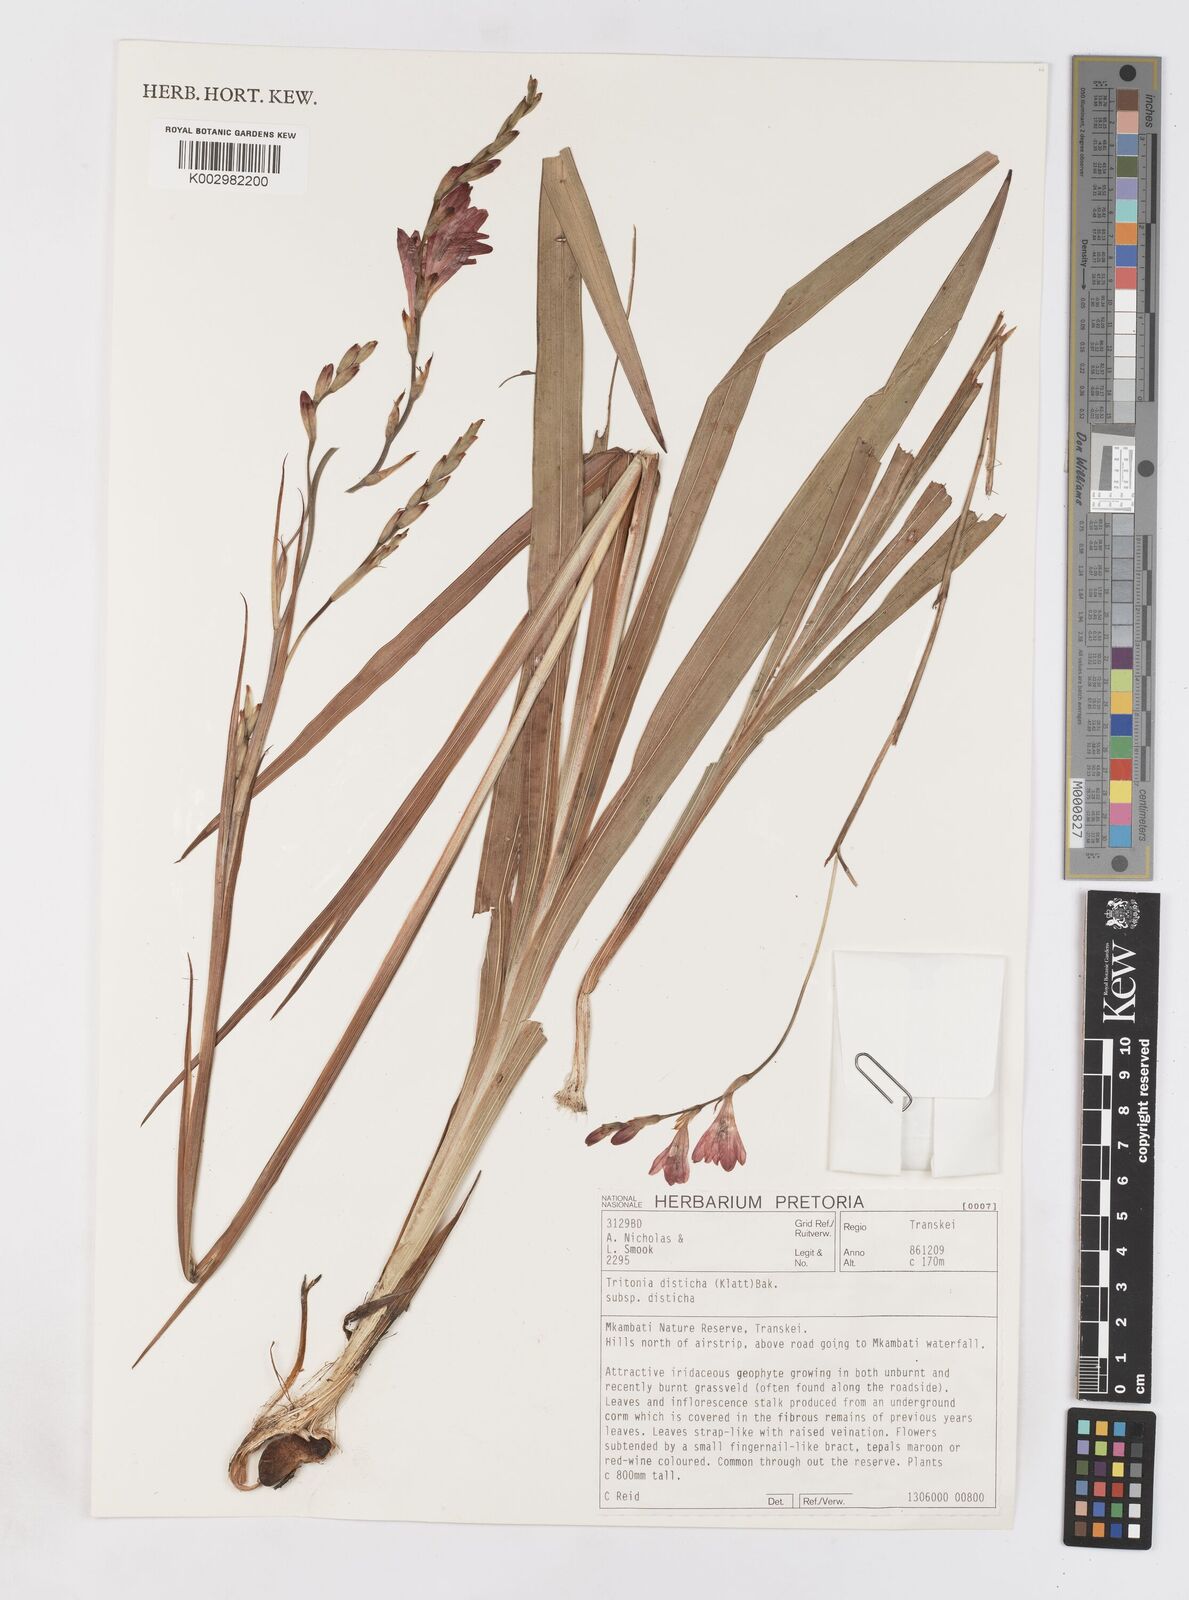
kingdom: Plantae
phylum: Tracheophyta
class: Liliopsida
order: Asparagales
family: Iridaceae
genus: Tritonia
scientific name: Tritonia disticha
